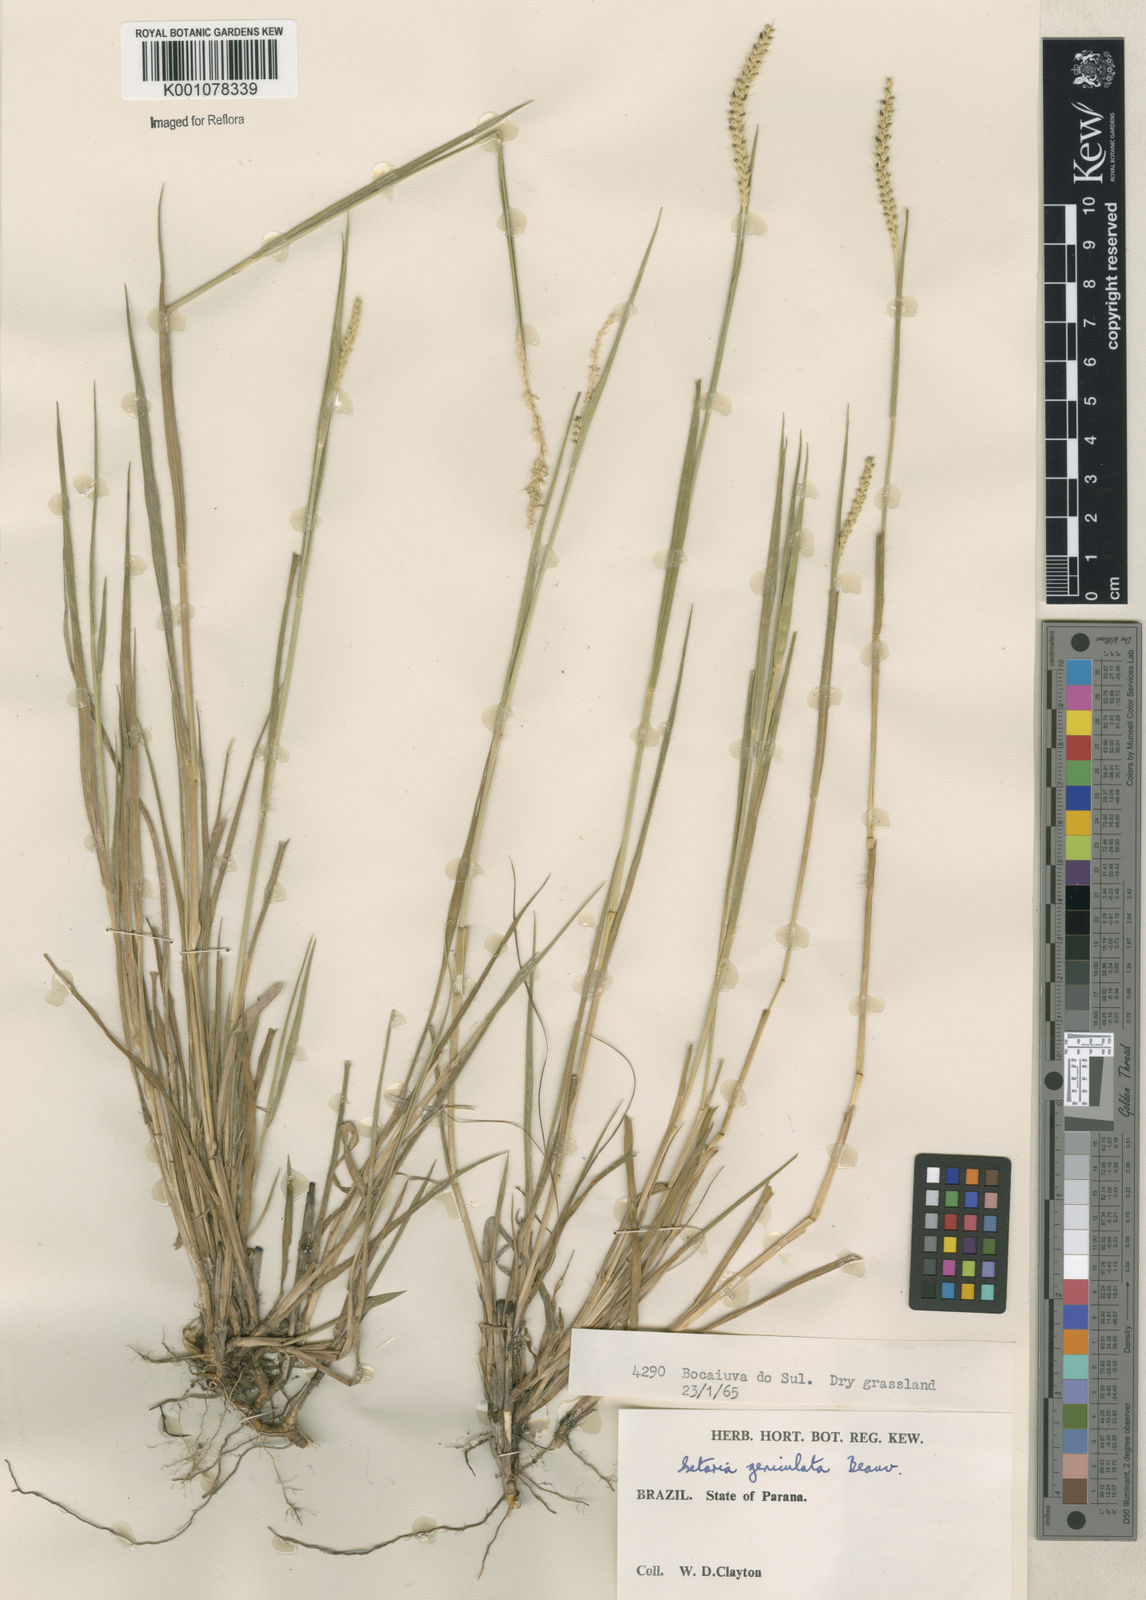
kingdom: Plantae
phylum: Tracheophyta
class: Liliopsida
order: Poales
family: Poaceae
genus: Setaria
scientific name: Setaria parviflora
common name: Knotroot bristle-grass
